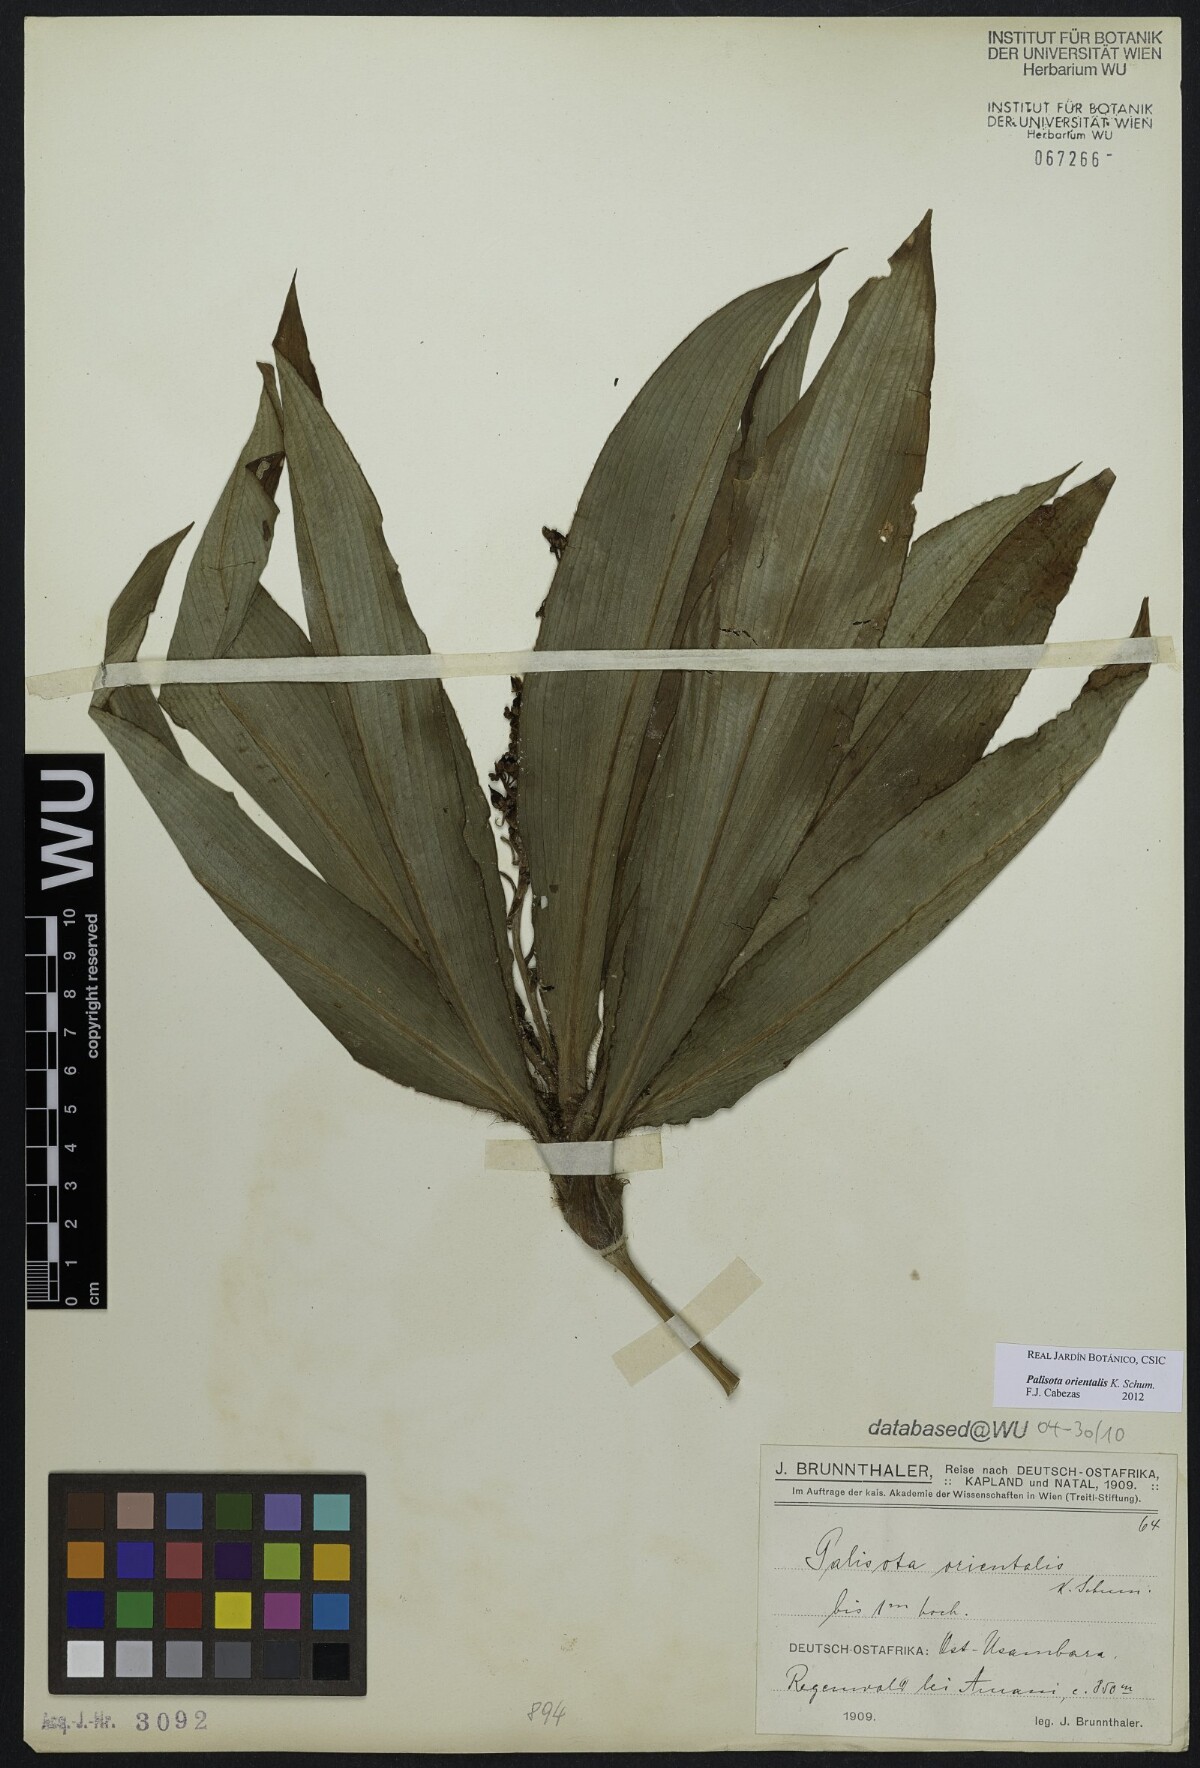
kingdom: Plantae
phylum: Tracheophyta
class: Liliopsida
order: Commelinales
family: Commelinaceae
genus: Palisota
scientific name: Palisota orientalis
